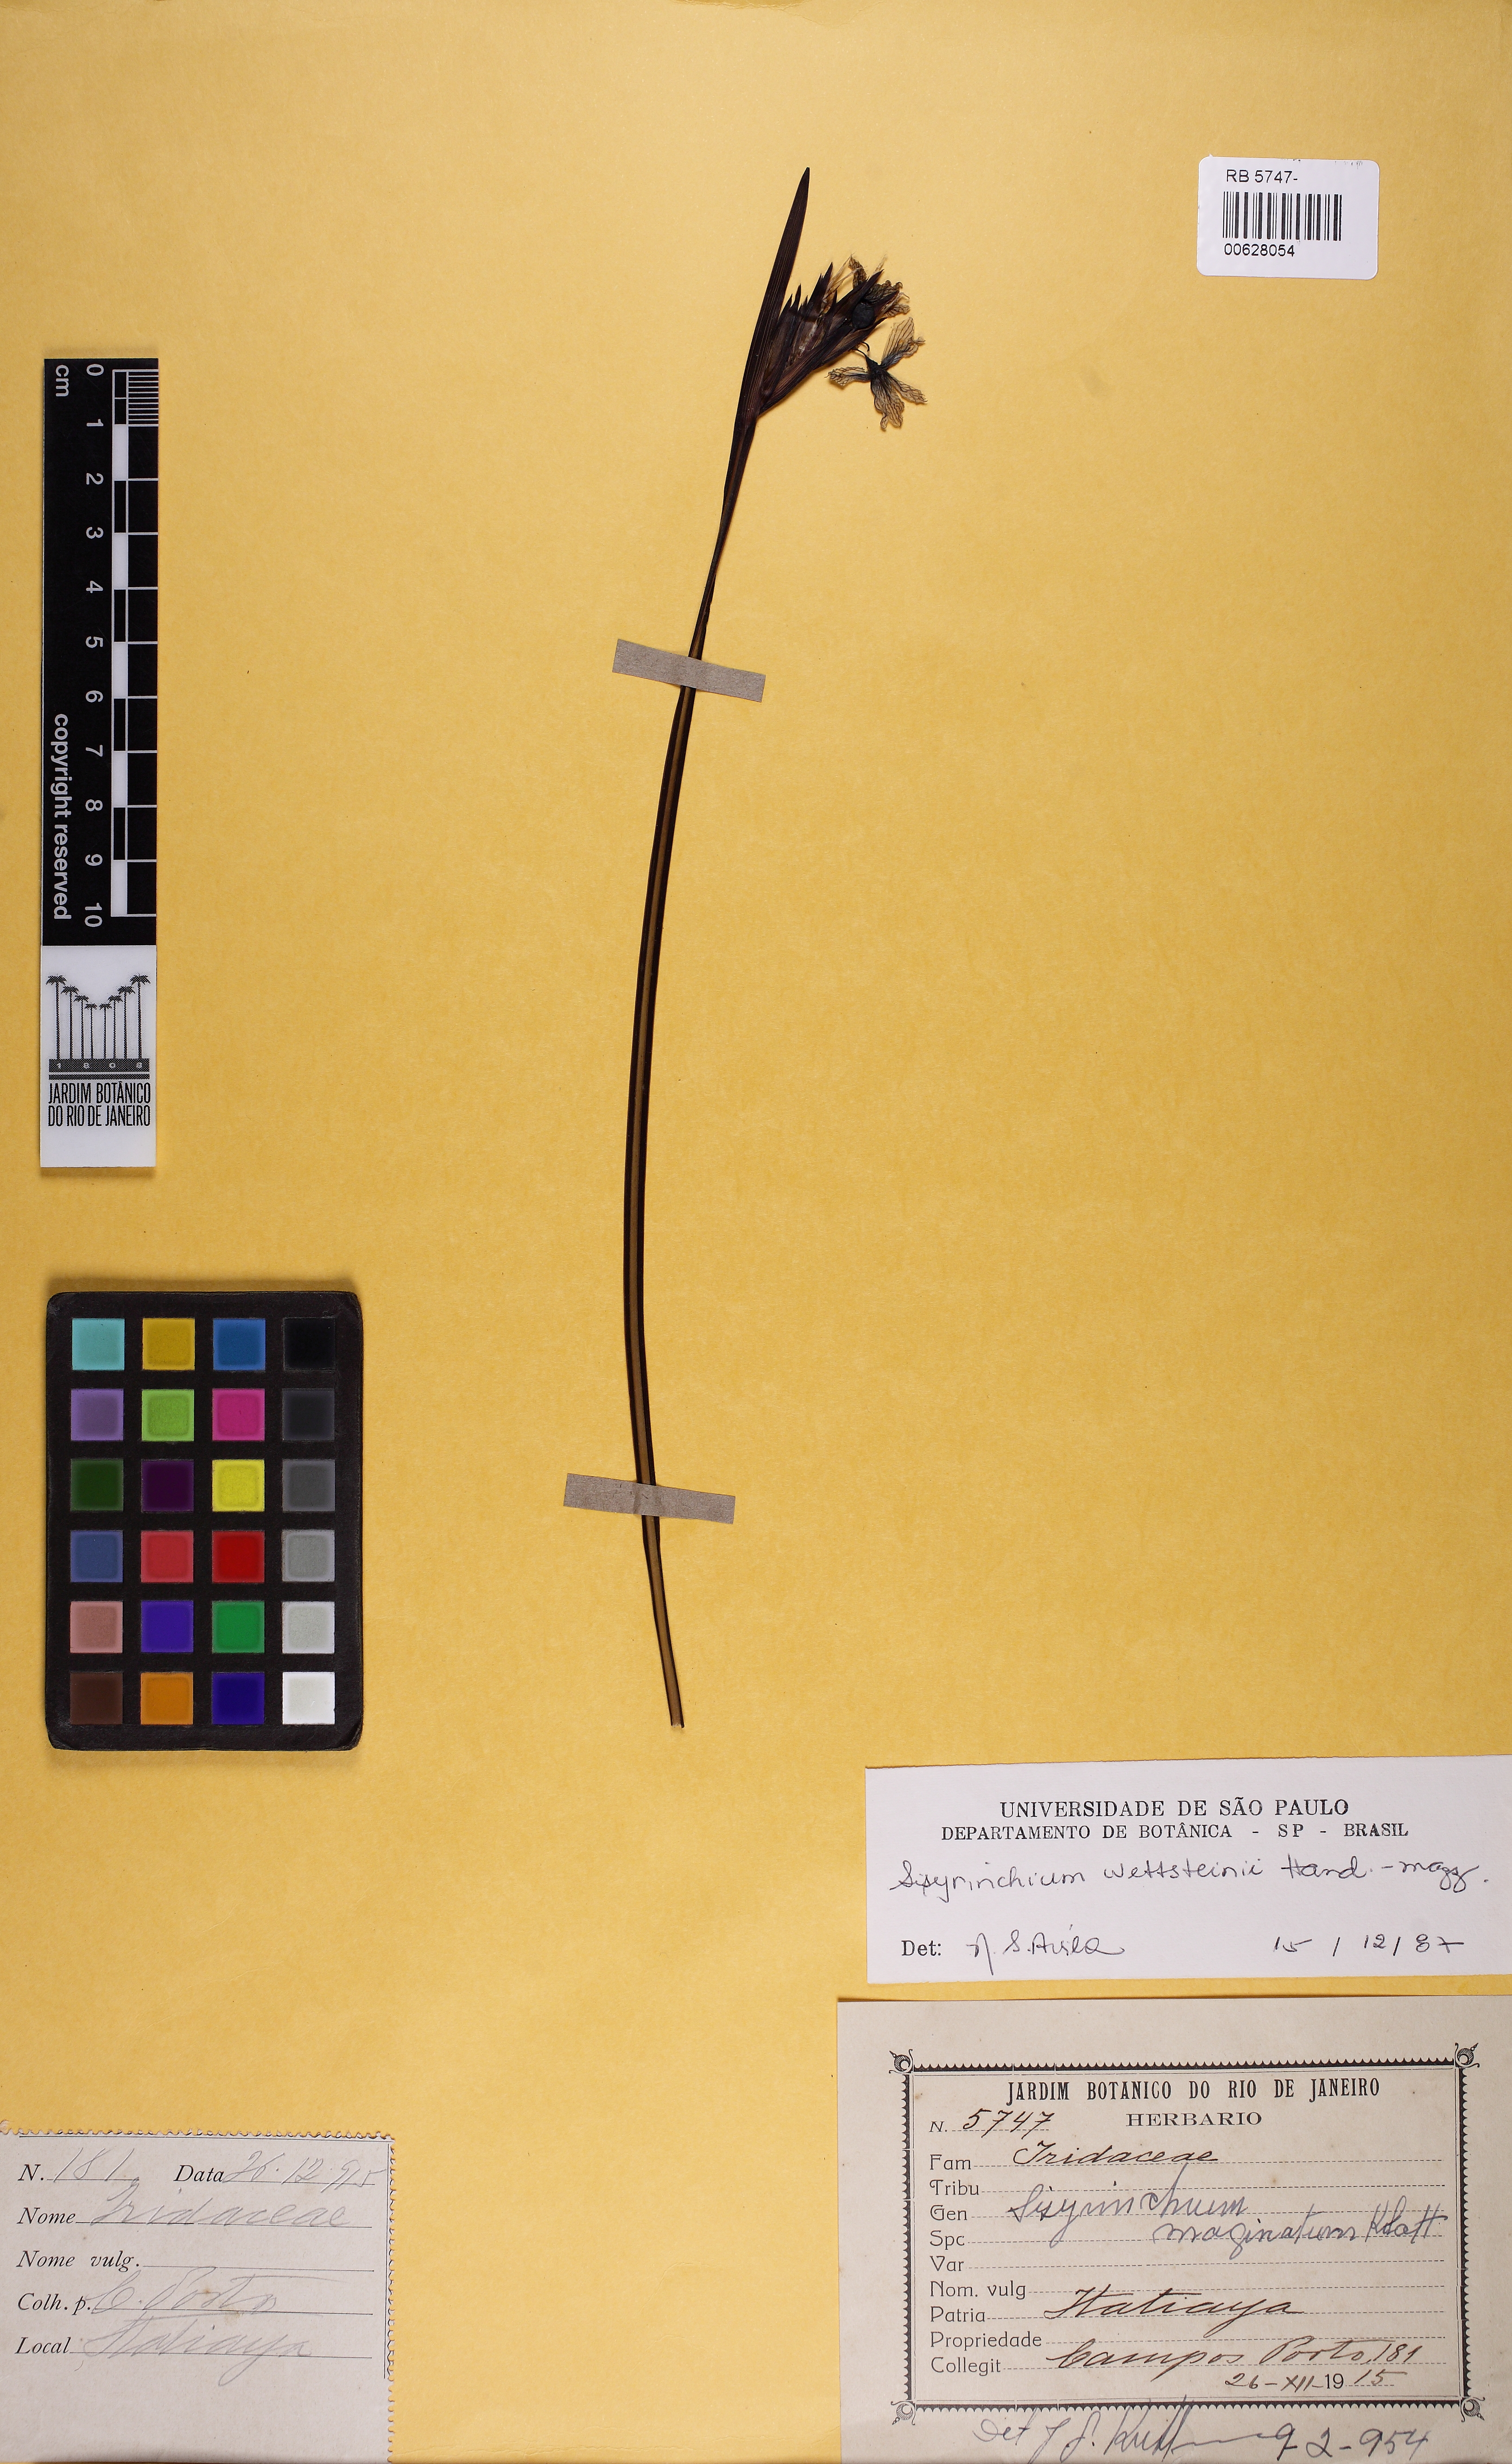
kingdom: Plantae
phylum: Tracheophyta
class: Liliopsida
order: Asparagales
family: Iridaceae
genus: Sisyrinchium
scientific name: Sisyrinchium wettsteinii
